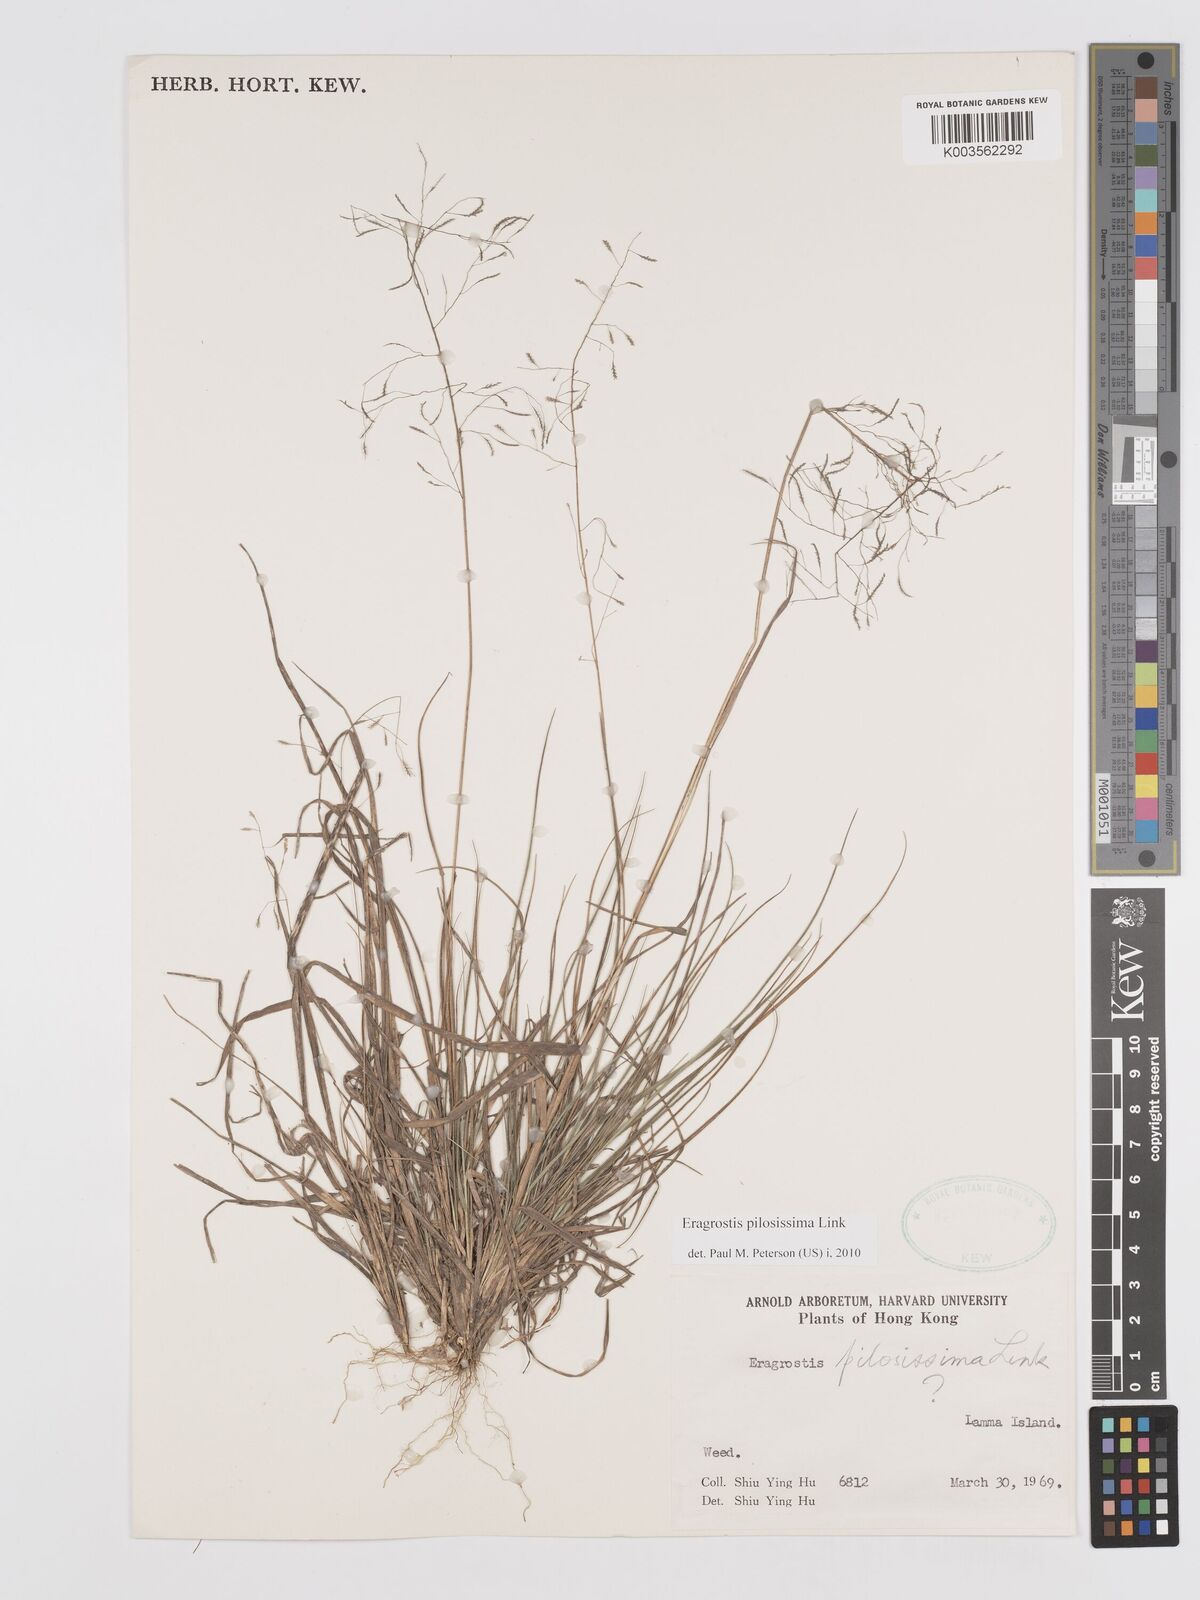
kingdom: Plantae
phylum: Tracheophyta
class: Liliopsida
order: Poales
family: Poaceae
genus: Eragrostis
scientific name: Eragrostis pilosissima
